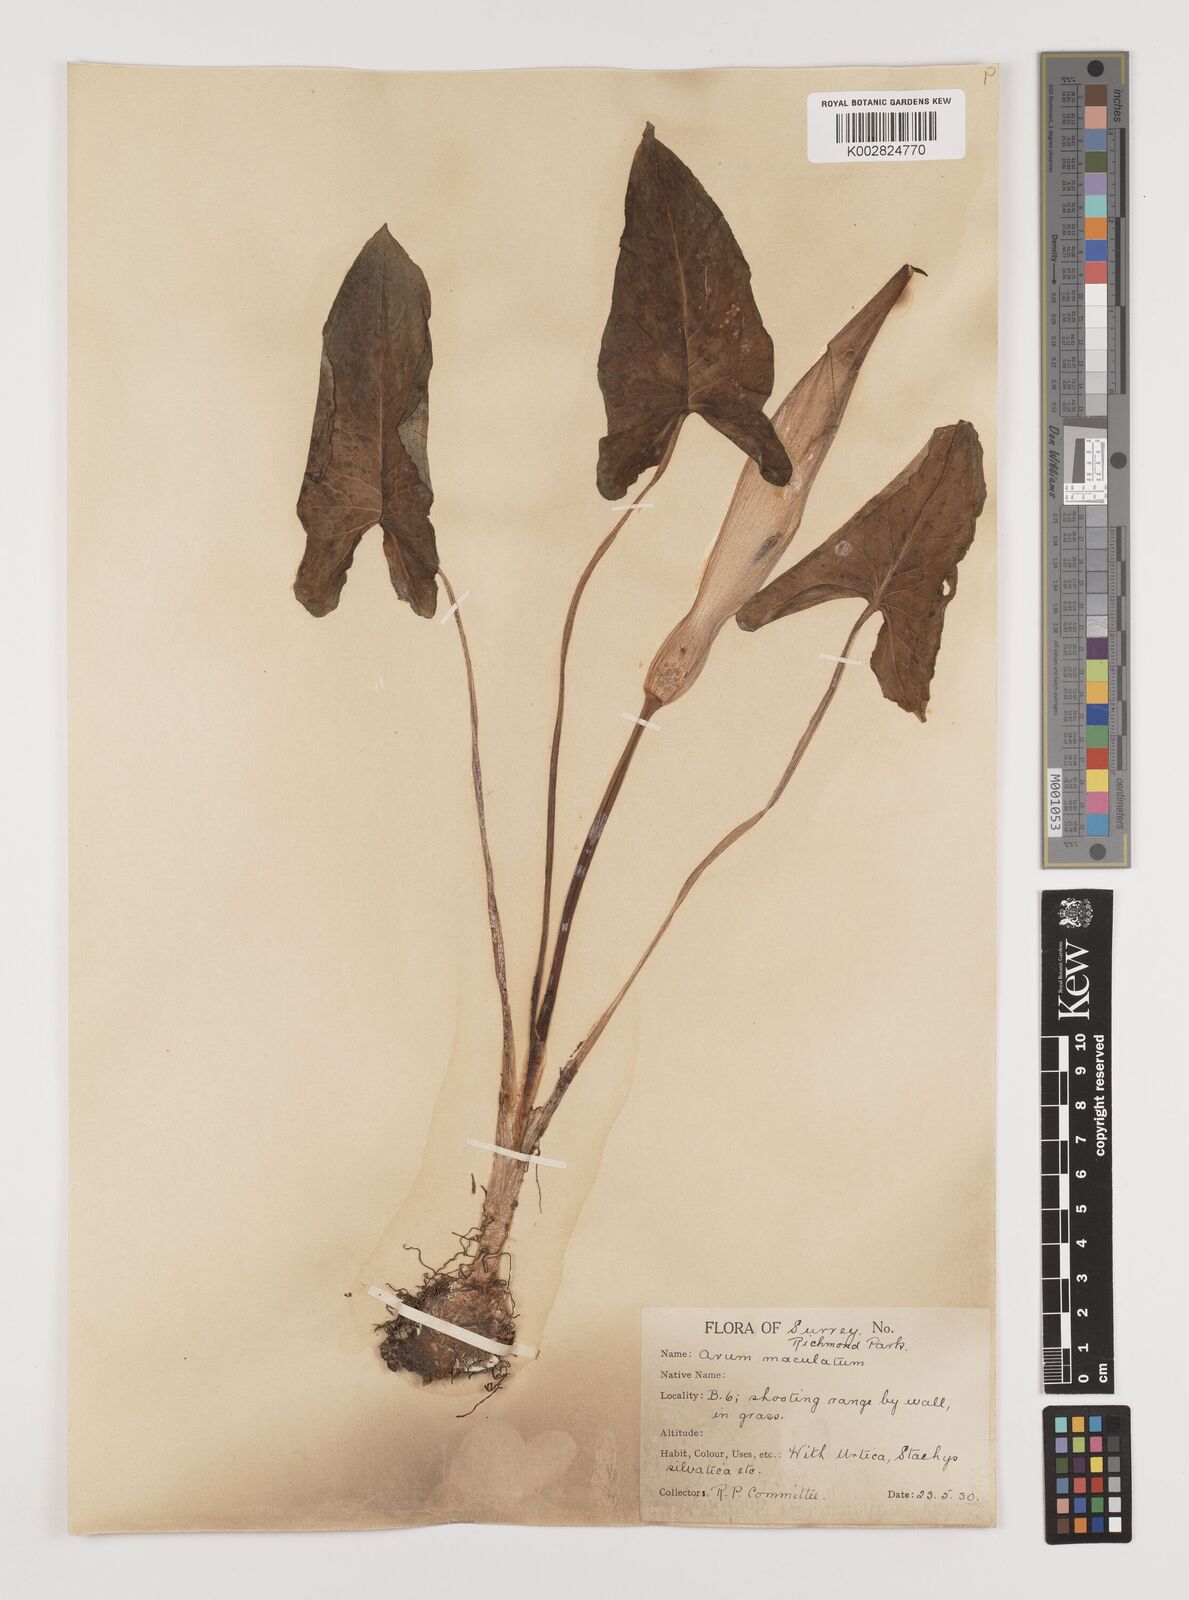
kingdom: Plantae
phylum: Tracheophyta
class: Liliopsida
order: Alismatales
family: Araceae
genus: Arum
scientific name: Arum maculatum
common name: Lords-and-ladies
